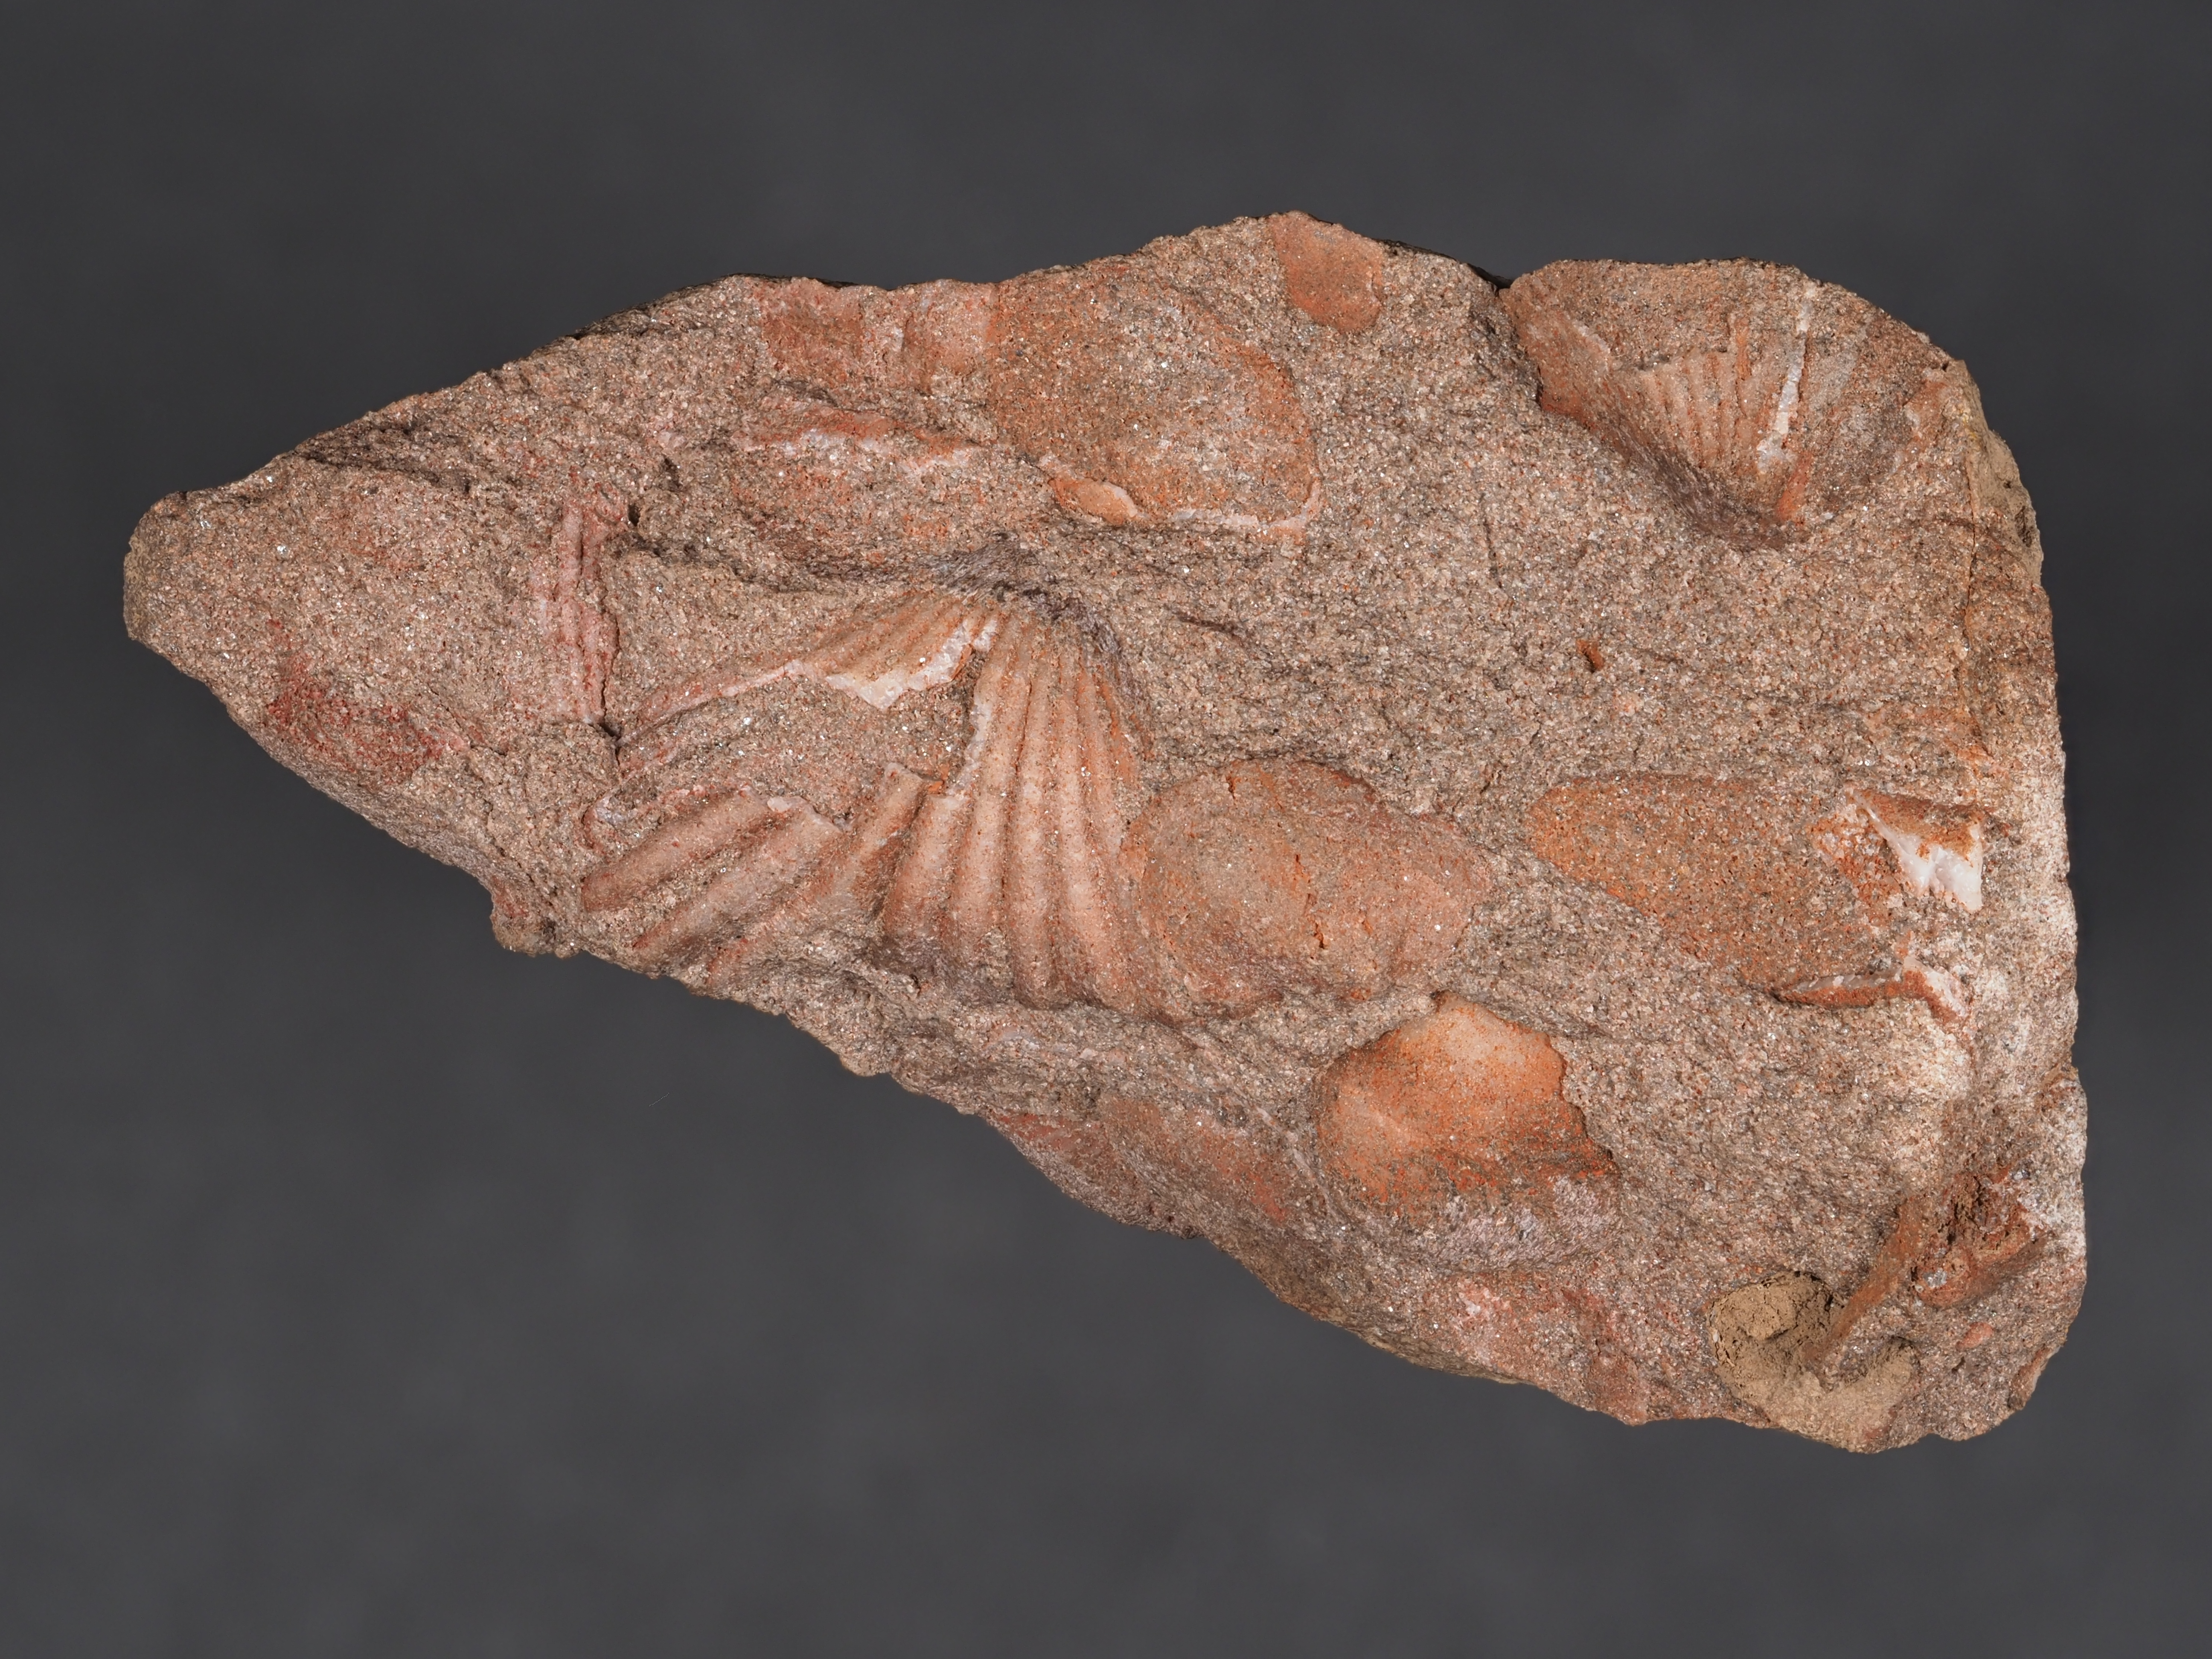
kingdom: Animalia
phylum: Brachiopoda
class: Rhynchonellata
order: Rhynchonellida
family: Trigonirhynchiidae
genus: Oligoptycherhynchus
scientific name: Oligoptycherhynchus
